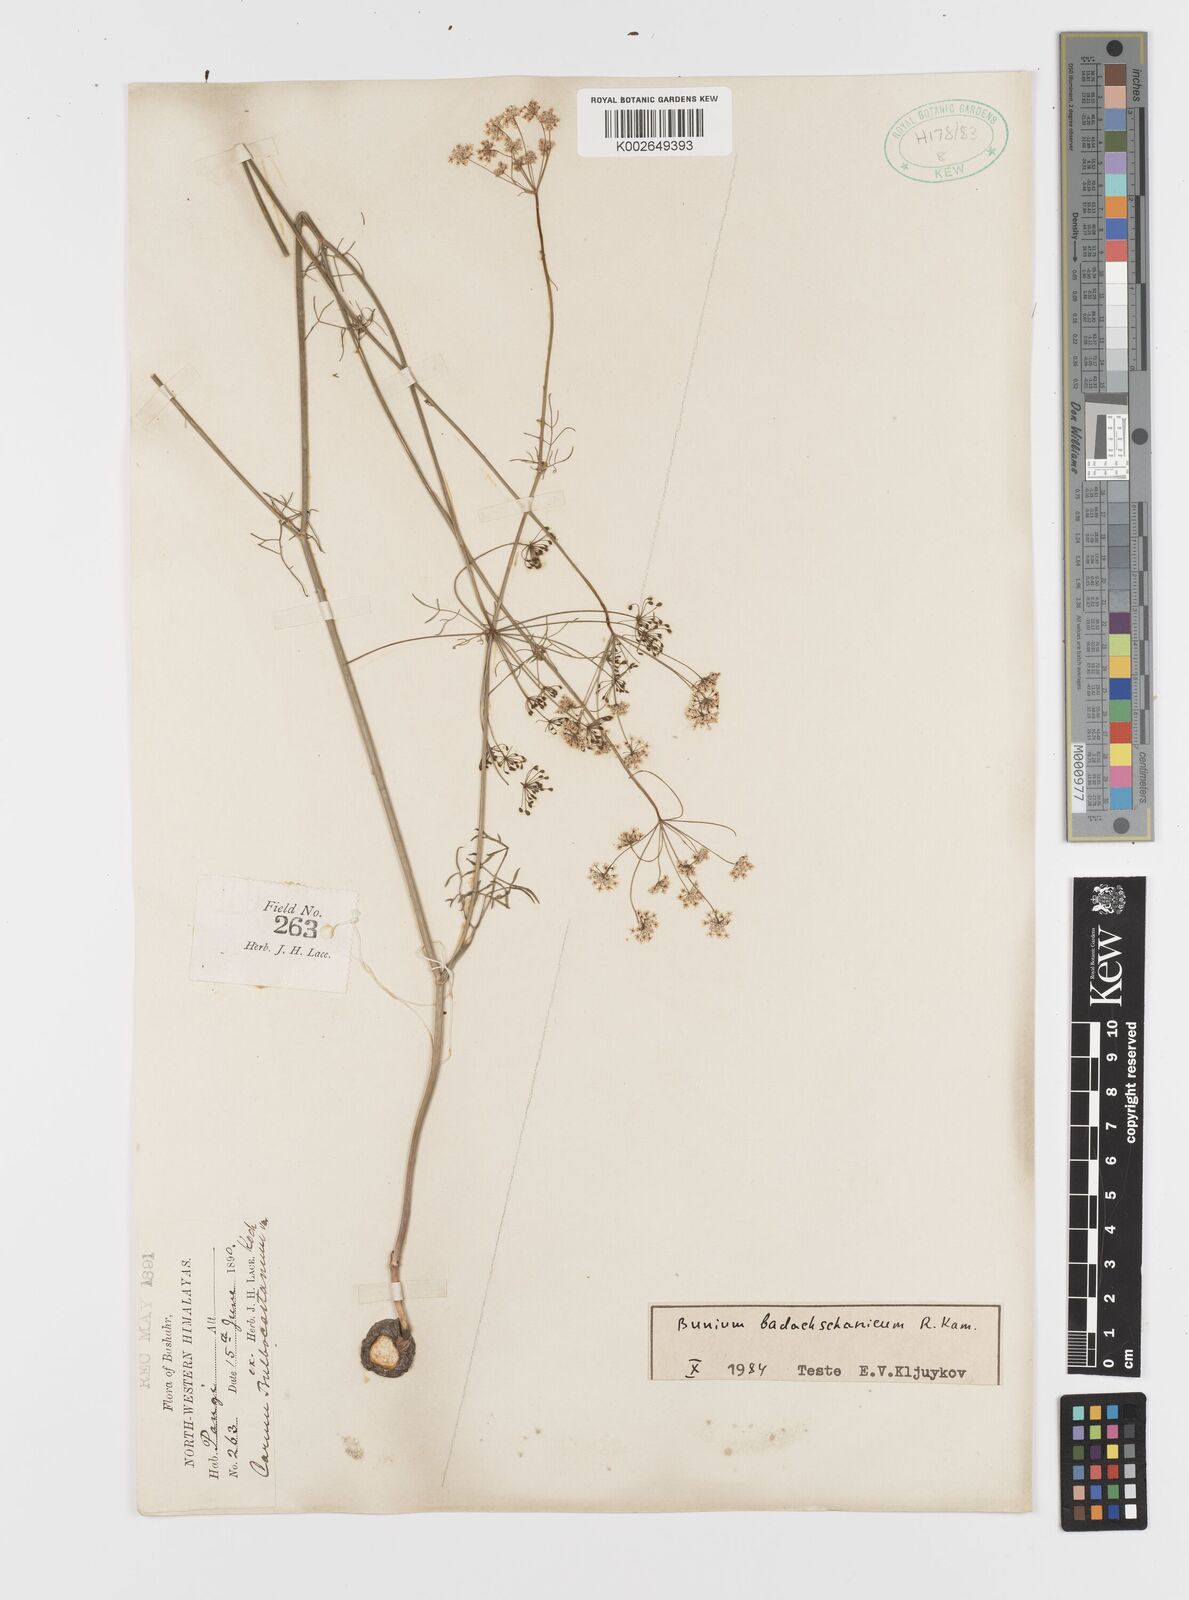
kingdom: Plantae
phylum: Tracheophyta
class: Magnoliopsida
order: Apiales
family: Apiaceae
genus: Elwendia
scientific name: Elwendia badachschanica
